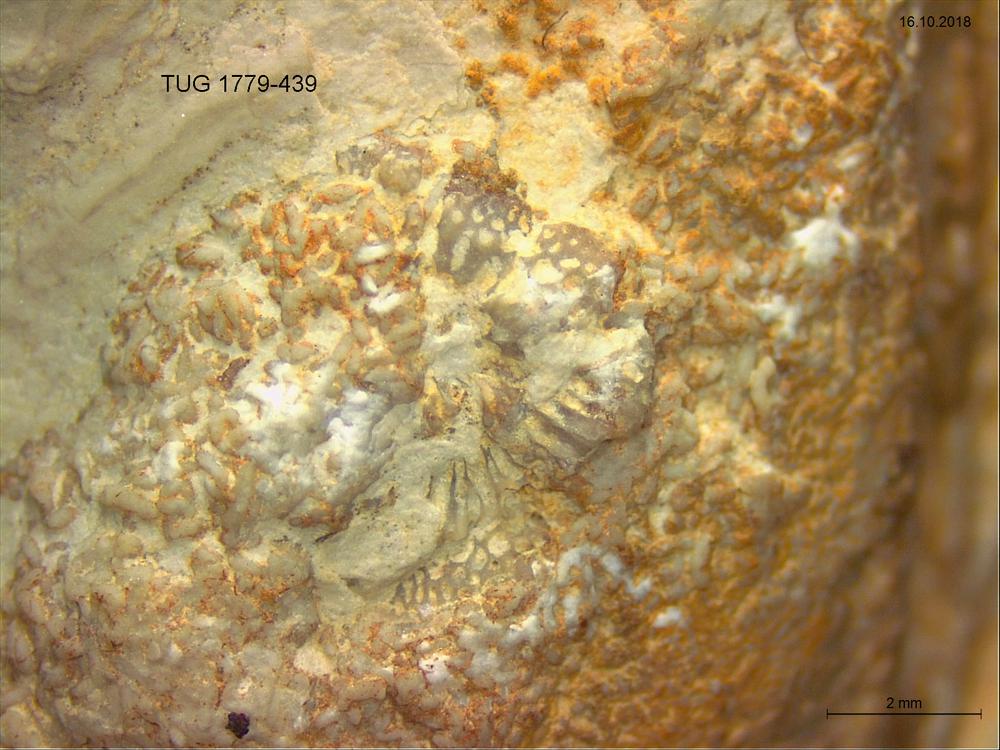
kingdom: Animalia
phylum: Bryozoa
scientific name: Bryozoa
